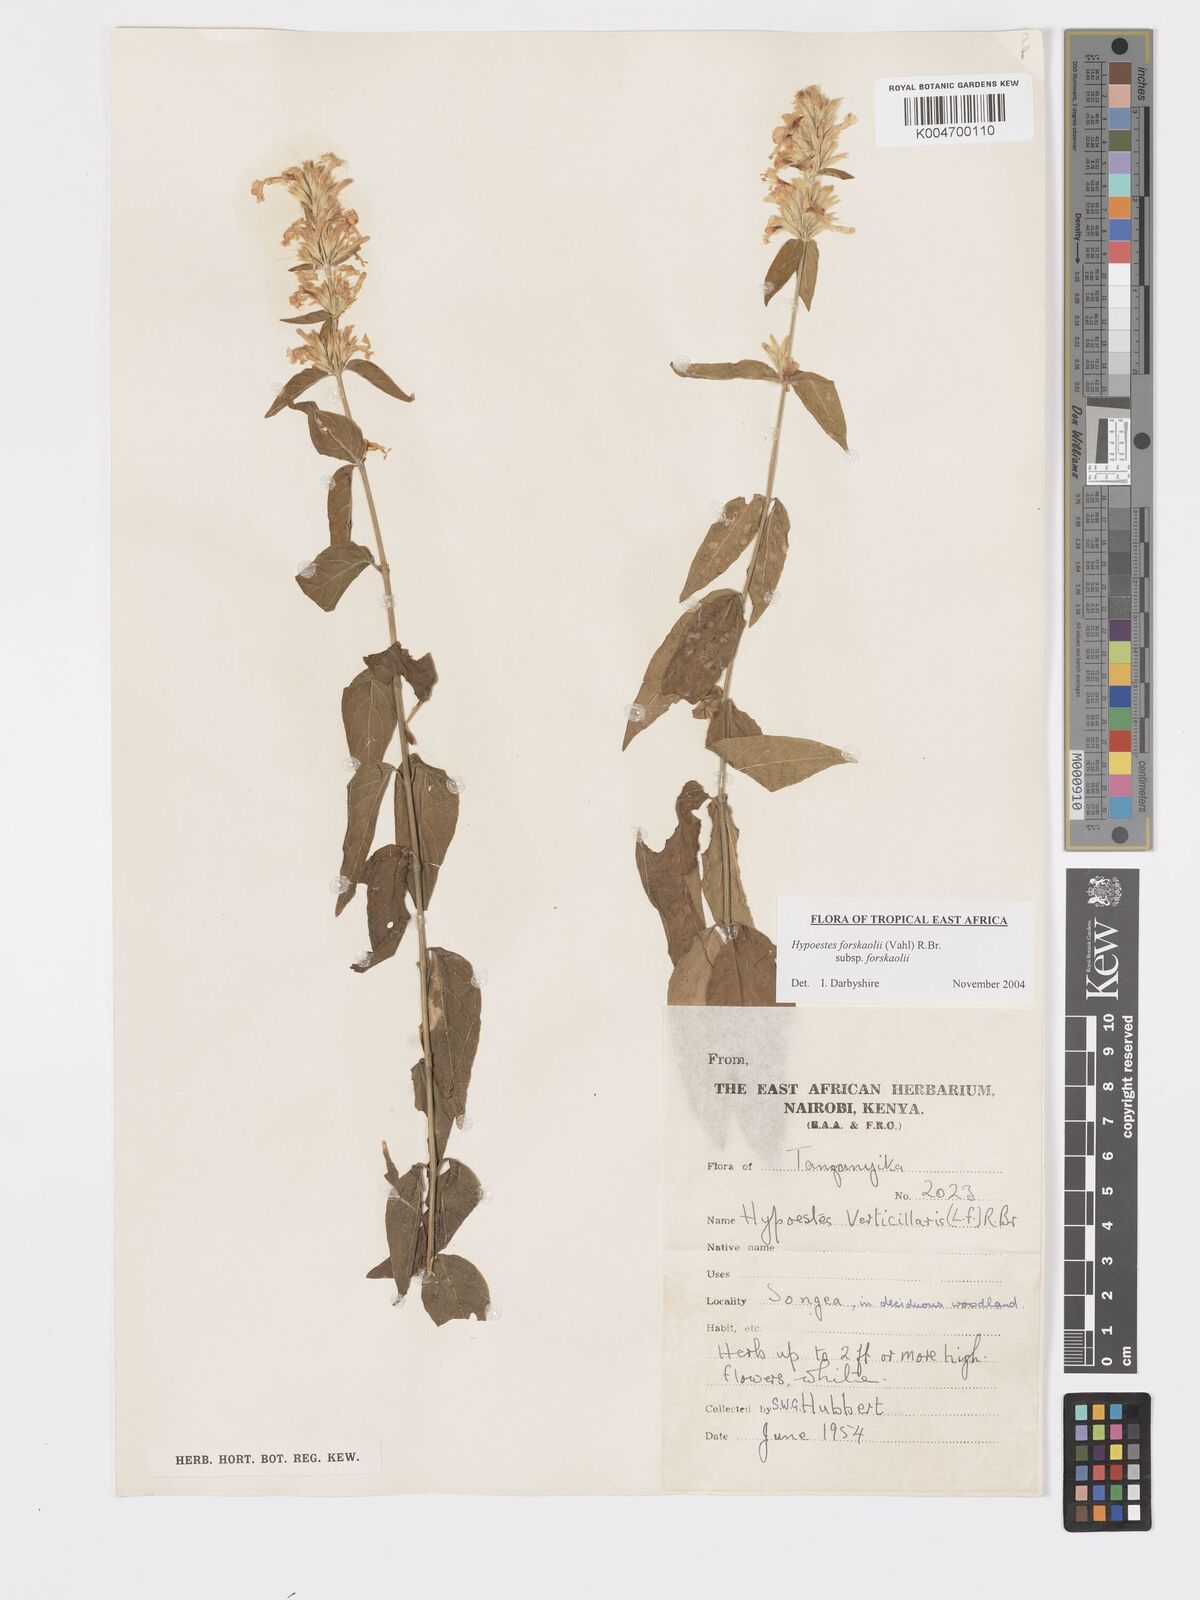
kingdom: Plantae
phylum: Tracheophyta
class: Magnoliopsida
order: Lamiales
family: Acanthaceae
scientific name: Acanthaceae
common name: Acanthaceae
